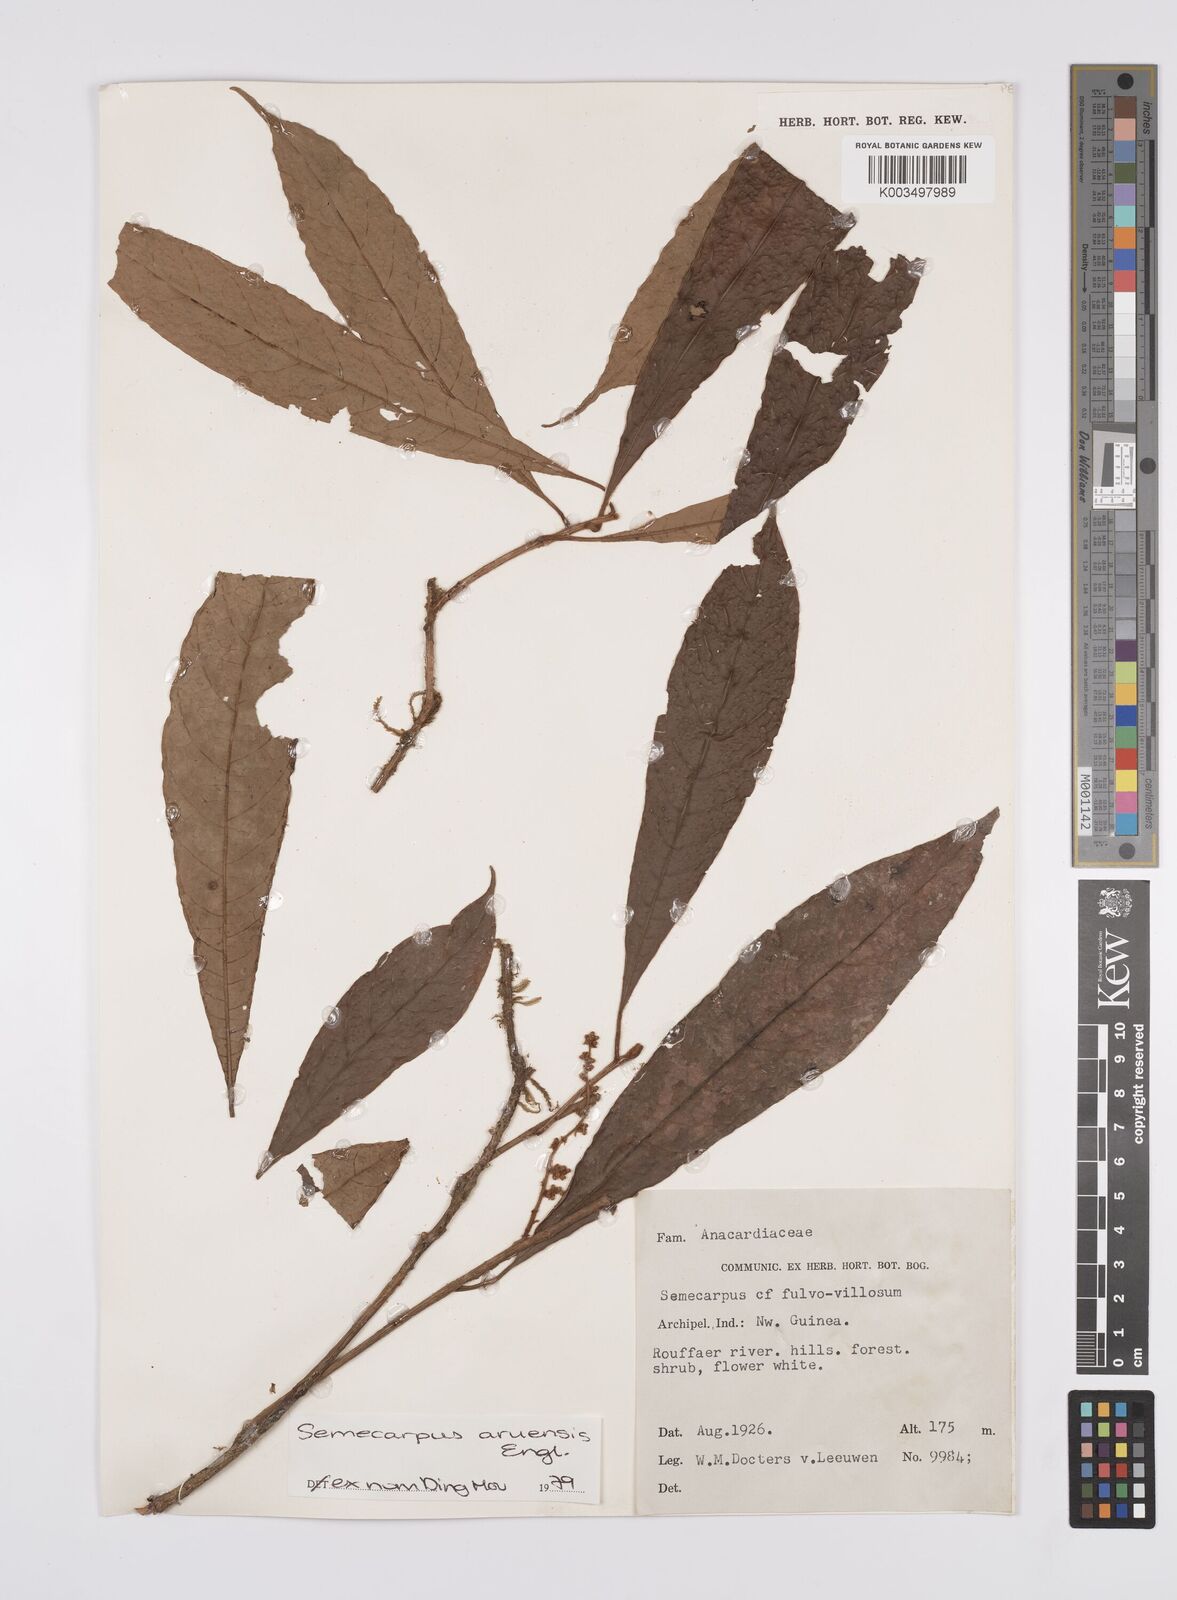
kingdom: Plantae
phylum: Tracheophyta
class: Magnoliopsida
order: Sapindales
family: Anacardiaceae
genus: Semecarpus
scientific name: Semecarpus aruensis
